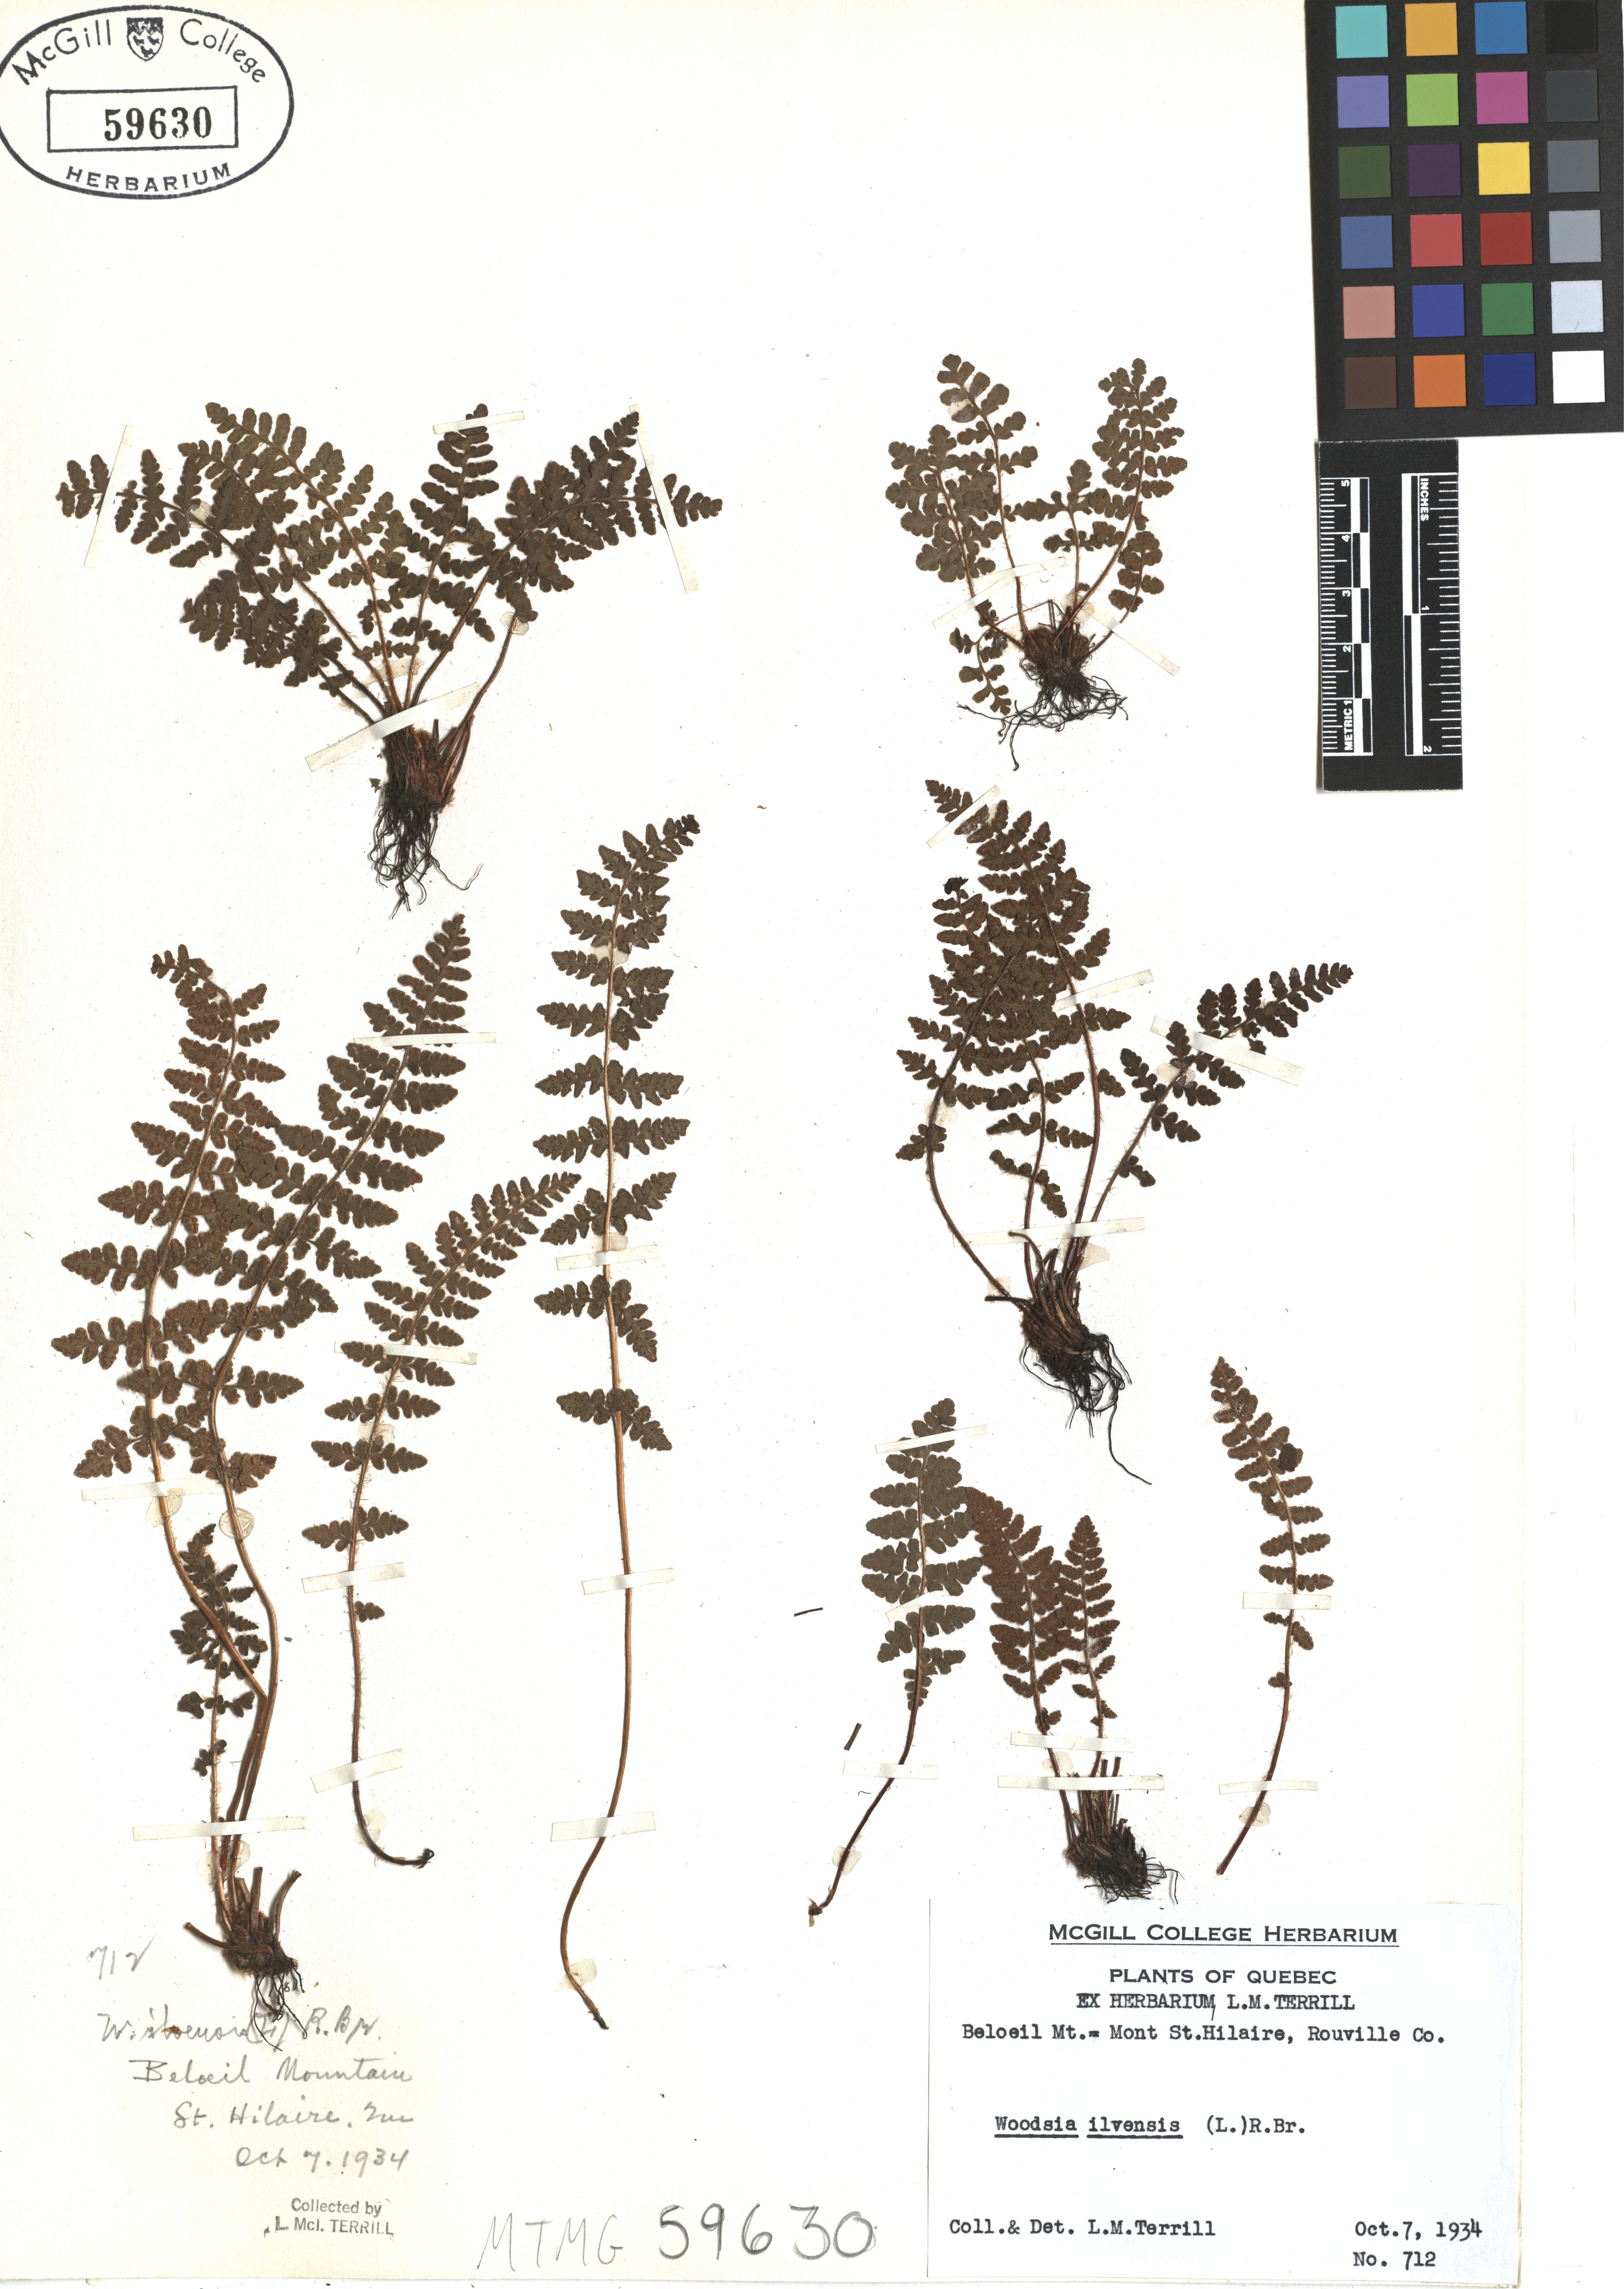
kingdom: Plantae
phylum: Tracheophyta
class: Polypodiopsida
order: Polypodiales
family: Woodsiaceae
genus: Woodsia
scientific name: Woodsia ilvensis
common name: Fragrant woodsia
